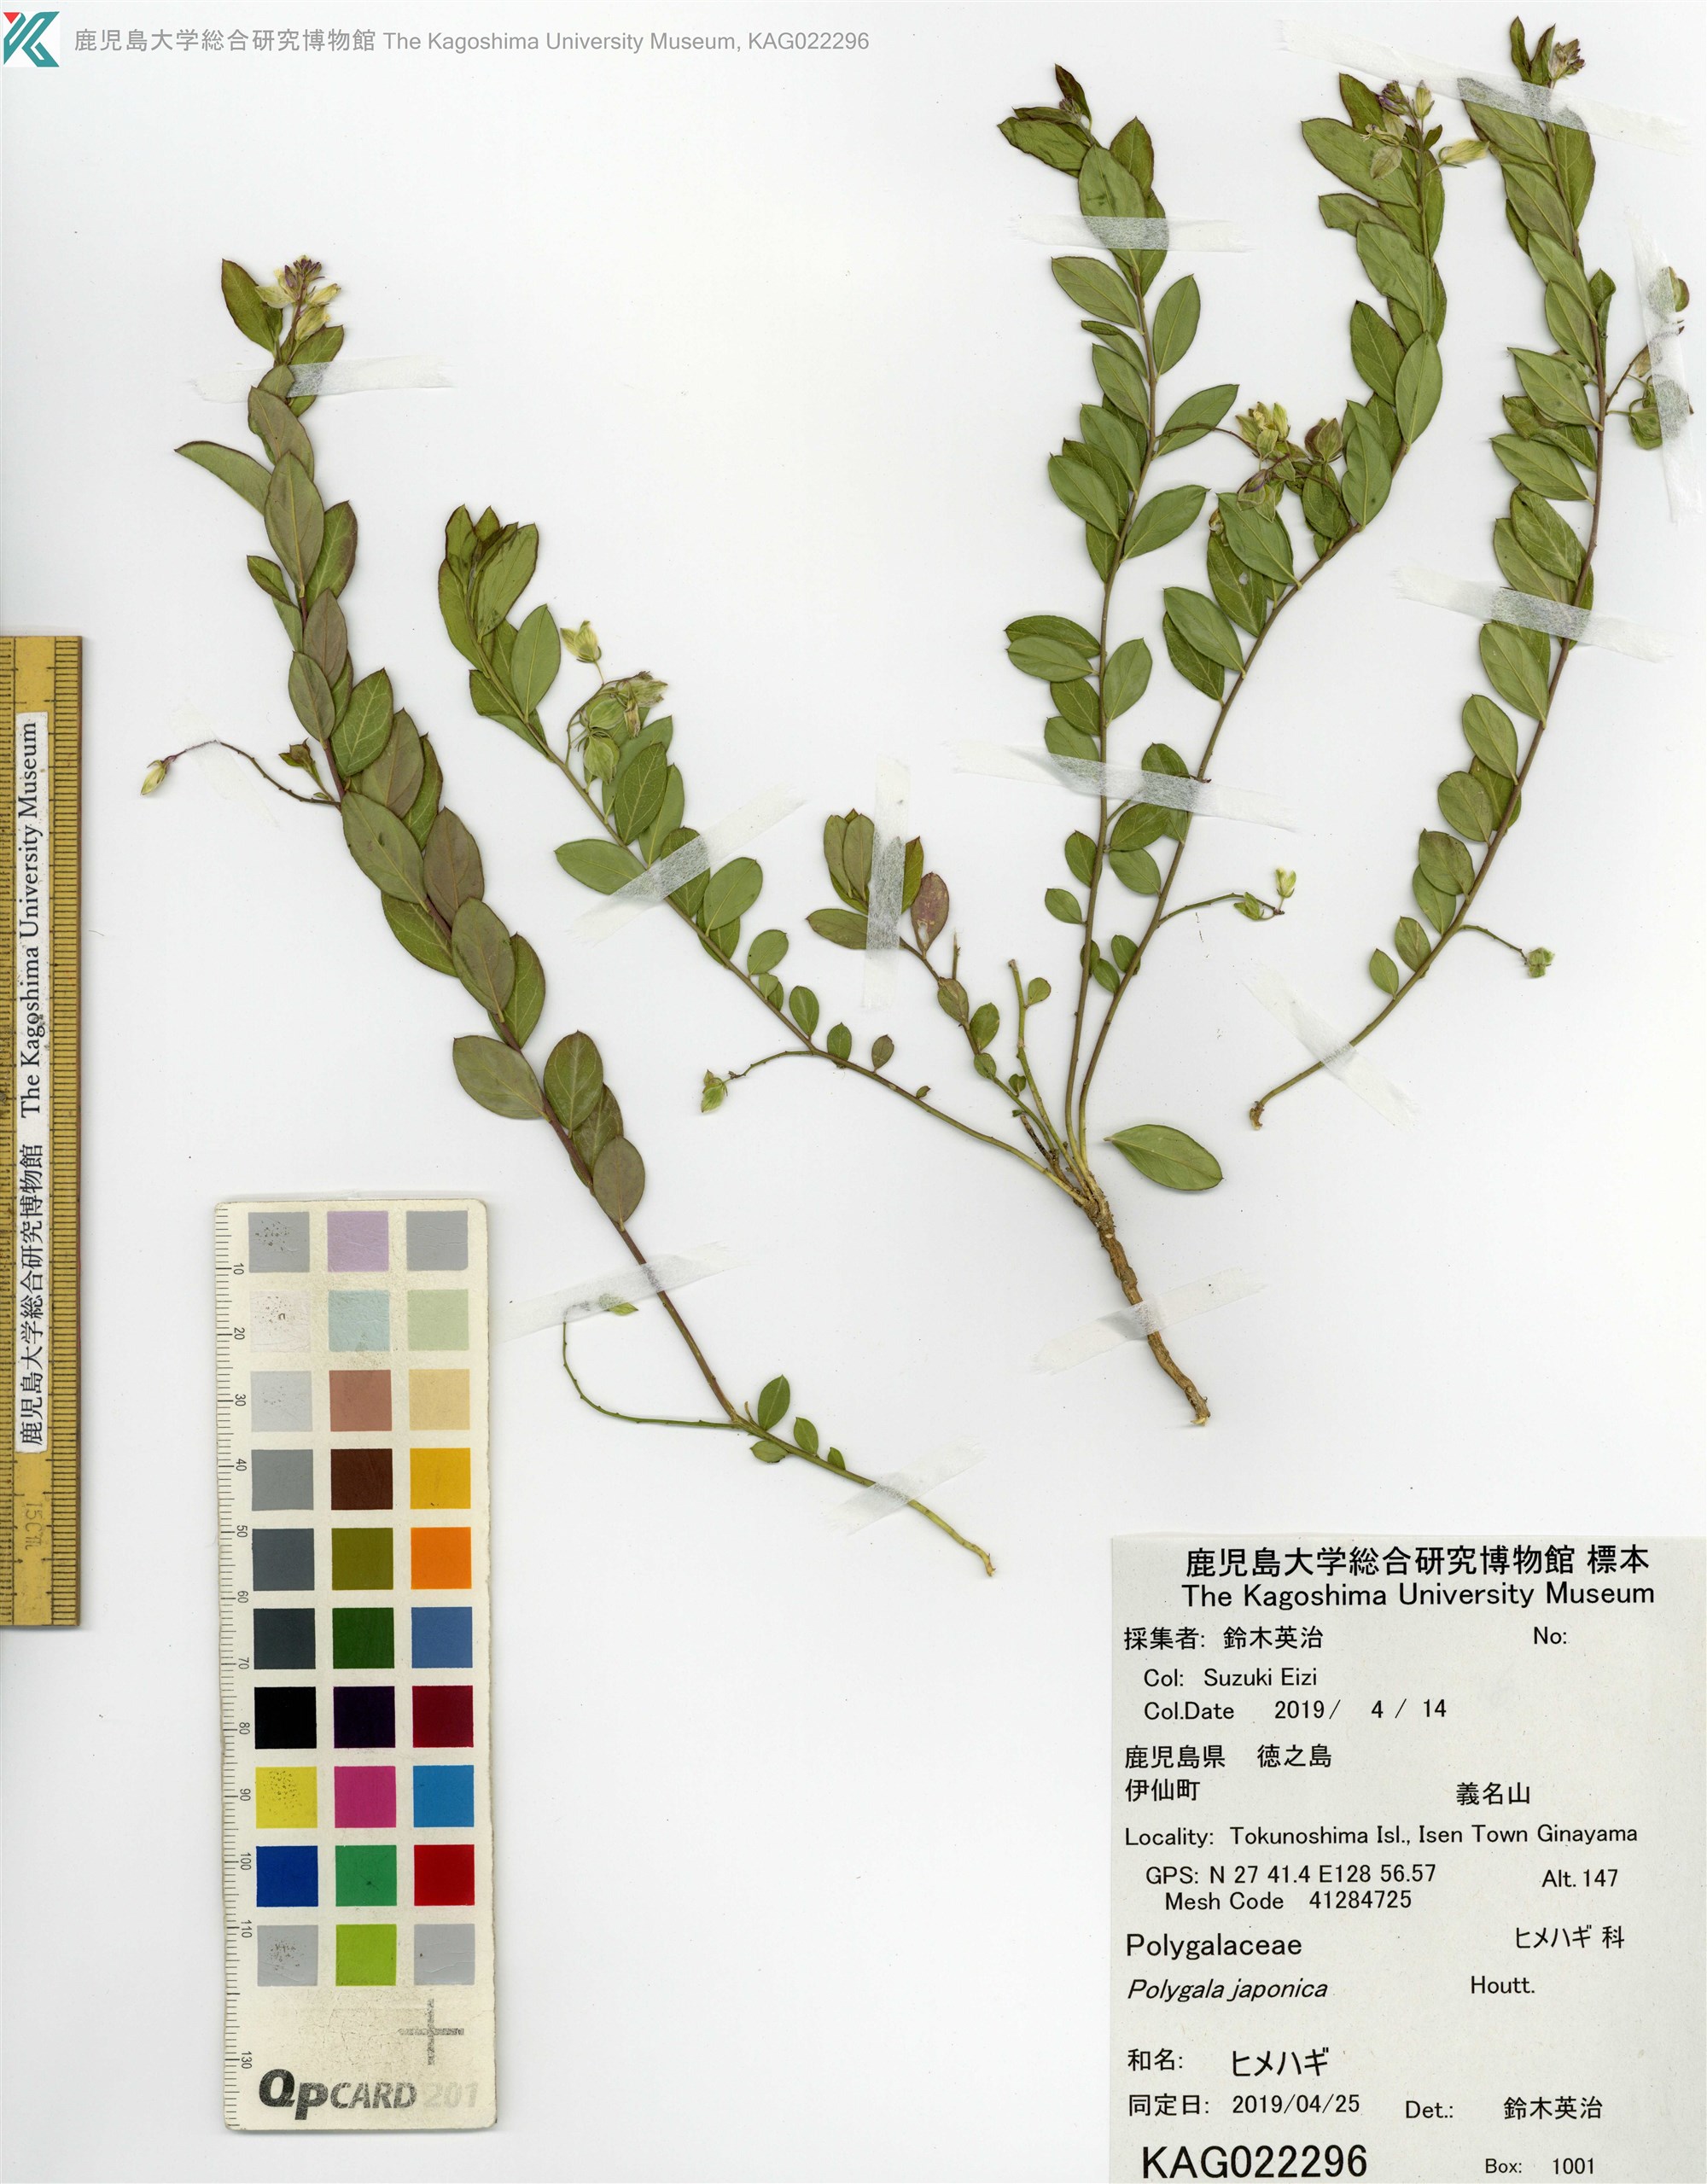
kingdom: Plantae
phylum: Tracheophyta
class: Magnoliopsida
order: Fabales
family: Polygalaceae
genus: Polygala
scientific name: Polygala japonica
